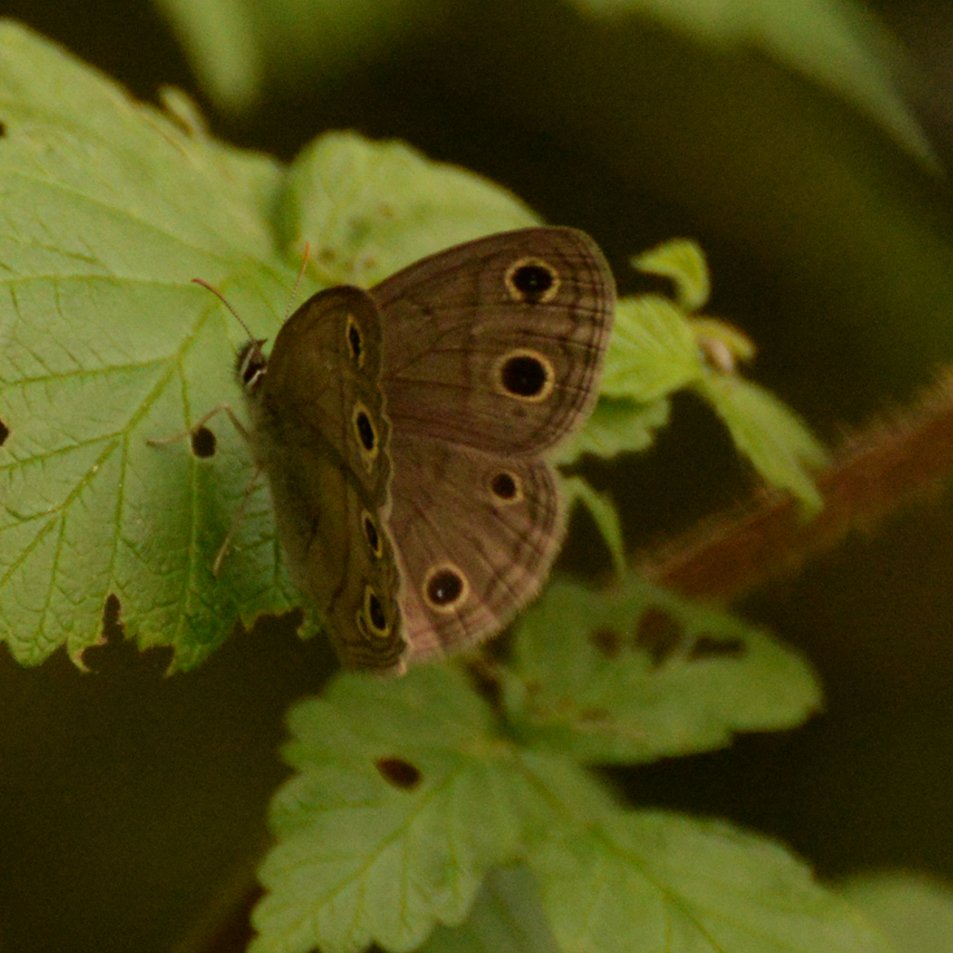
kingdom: Animalia
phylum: Arthropoda
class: Insecta
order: Lepidoptera
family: Nymphalidae
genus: Euptychia
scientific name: Euptychia cymela
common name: Little Wood Satyr
